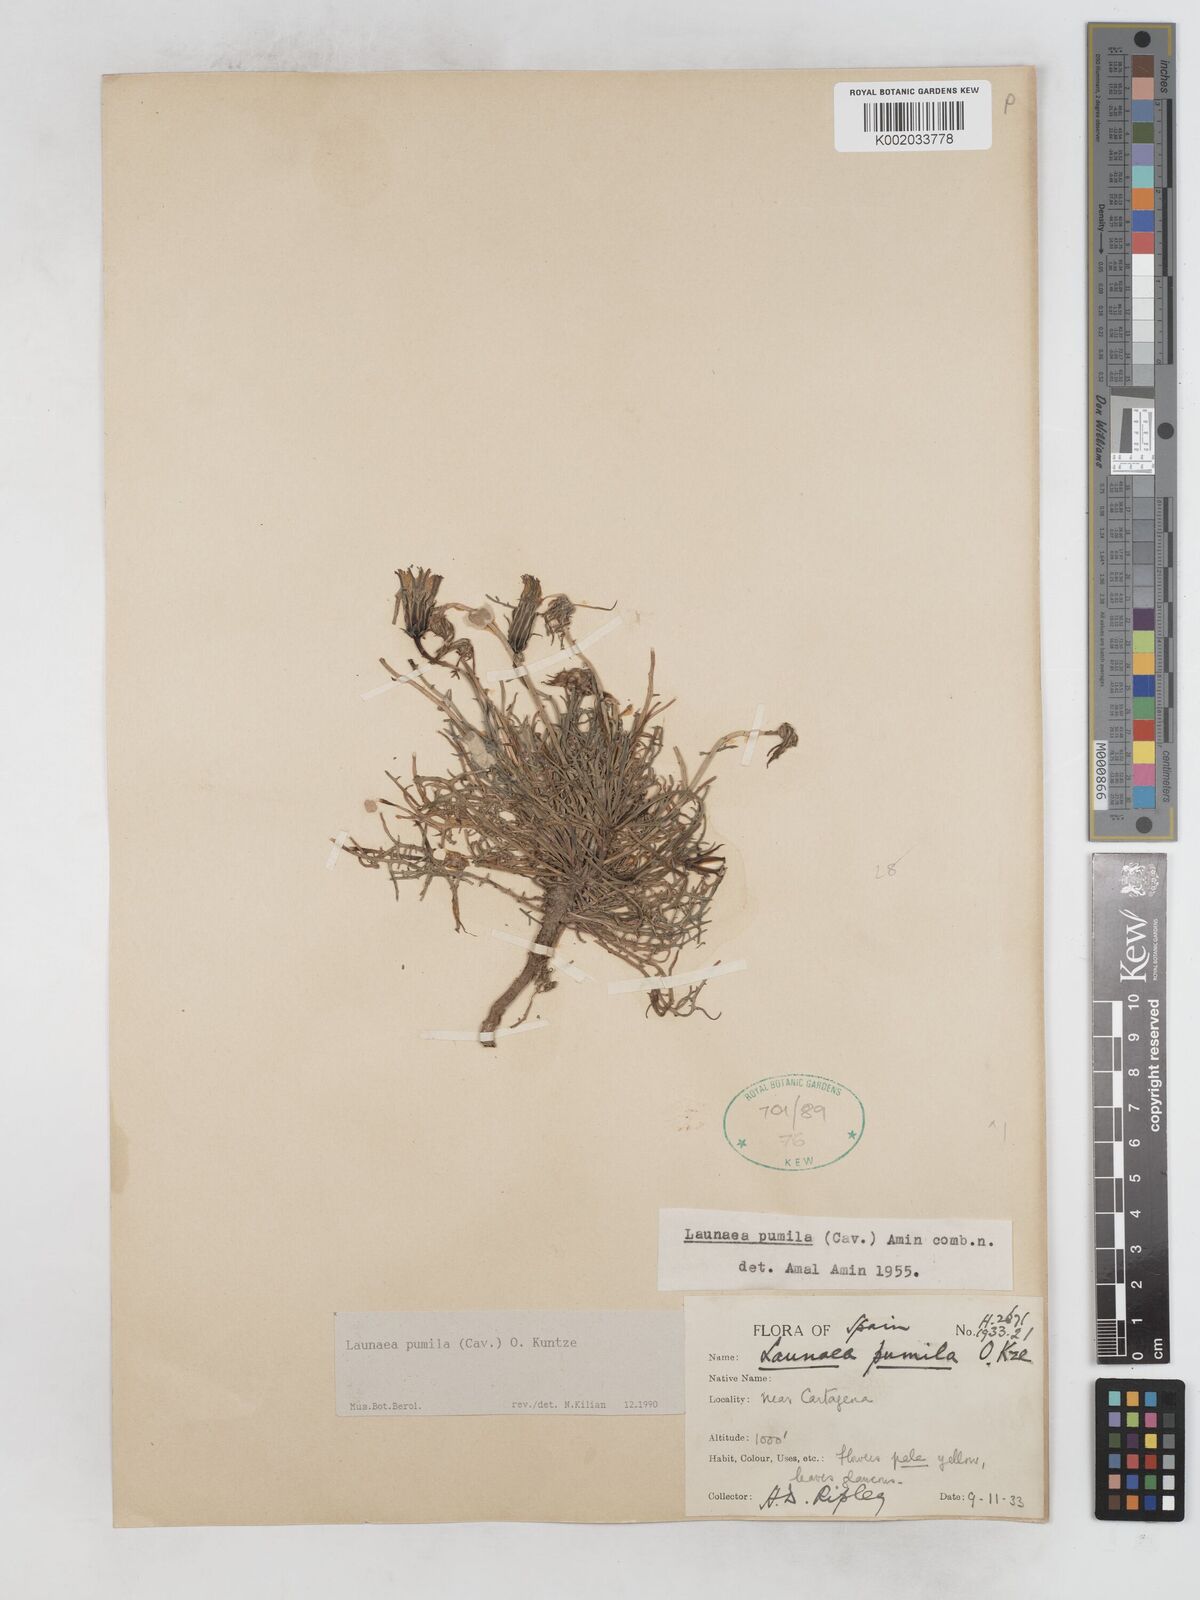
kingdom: Plantae
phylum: Tracheophyta
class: Magnoliopsida
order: Asterales
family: Asteraceae
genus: Launaea
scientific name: Launaea pumila
